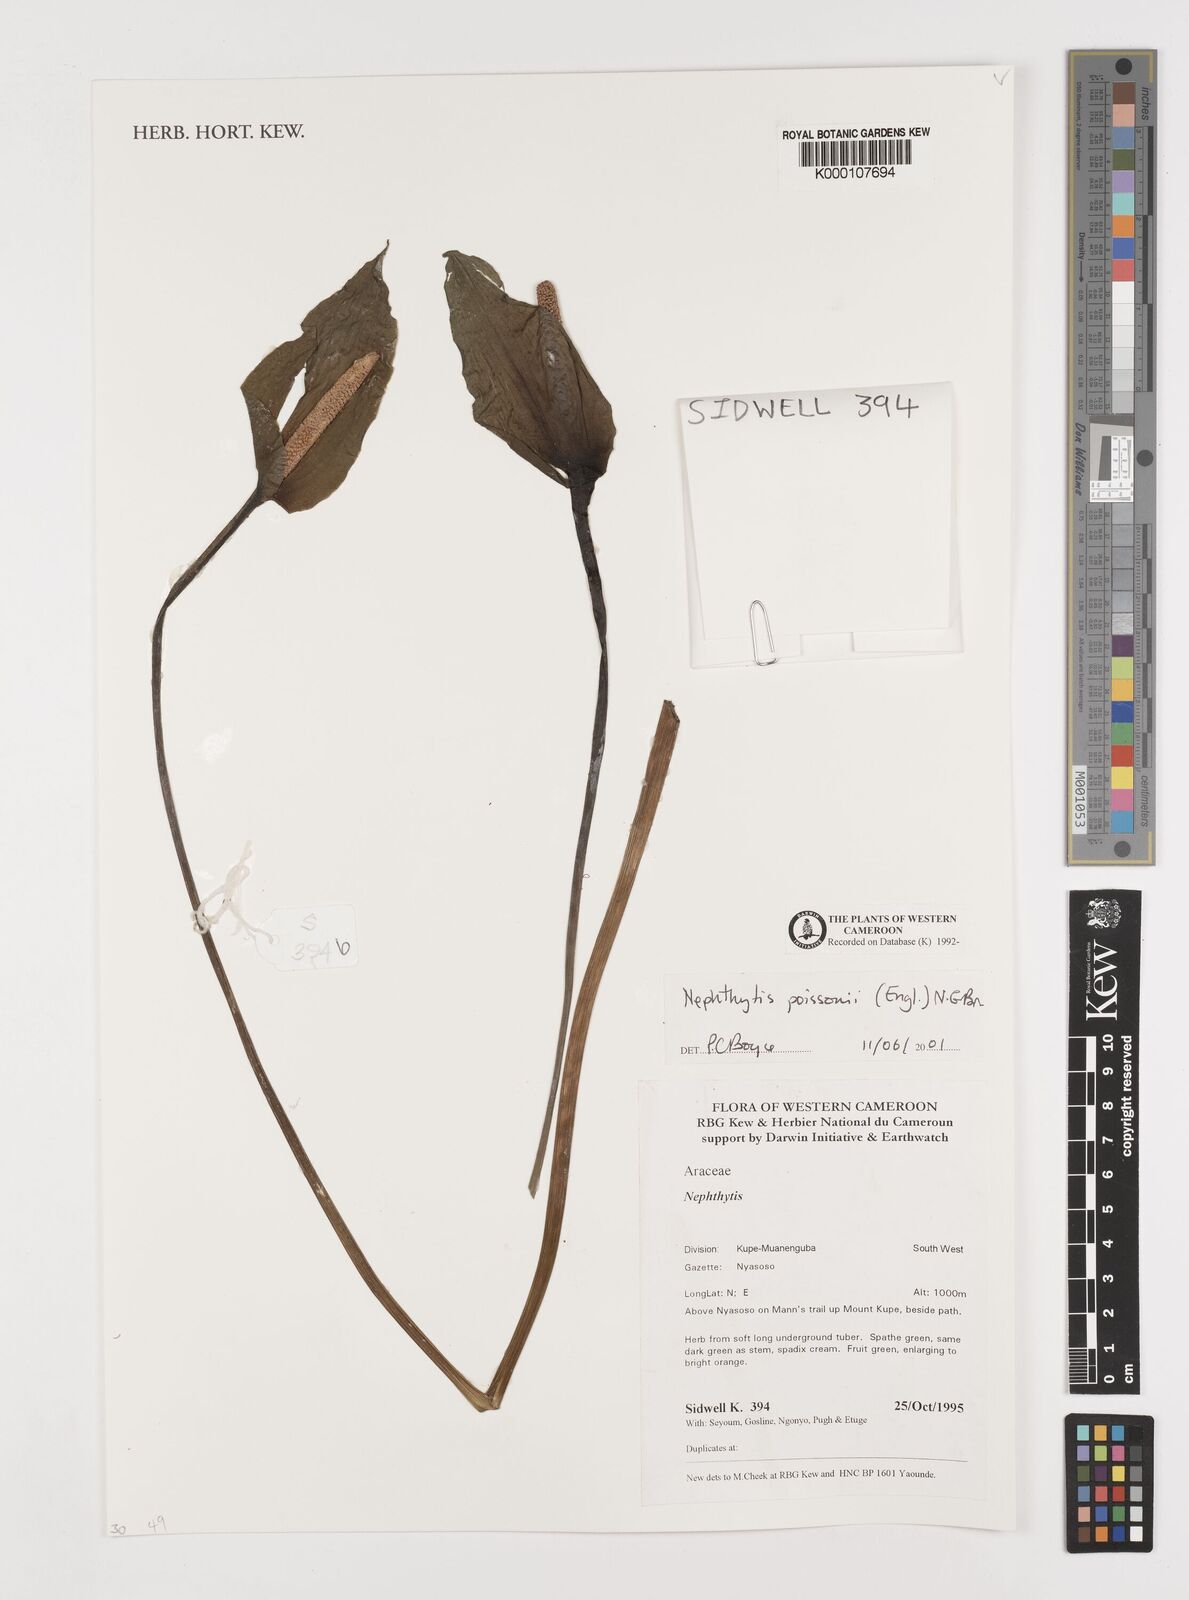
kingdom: Plantae
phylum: Tracheophyta
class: Liliopsida
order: Alismatales
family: Araceae
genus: Nephthytis
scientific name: Nephthytis poissonii
